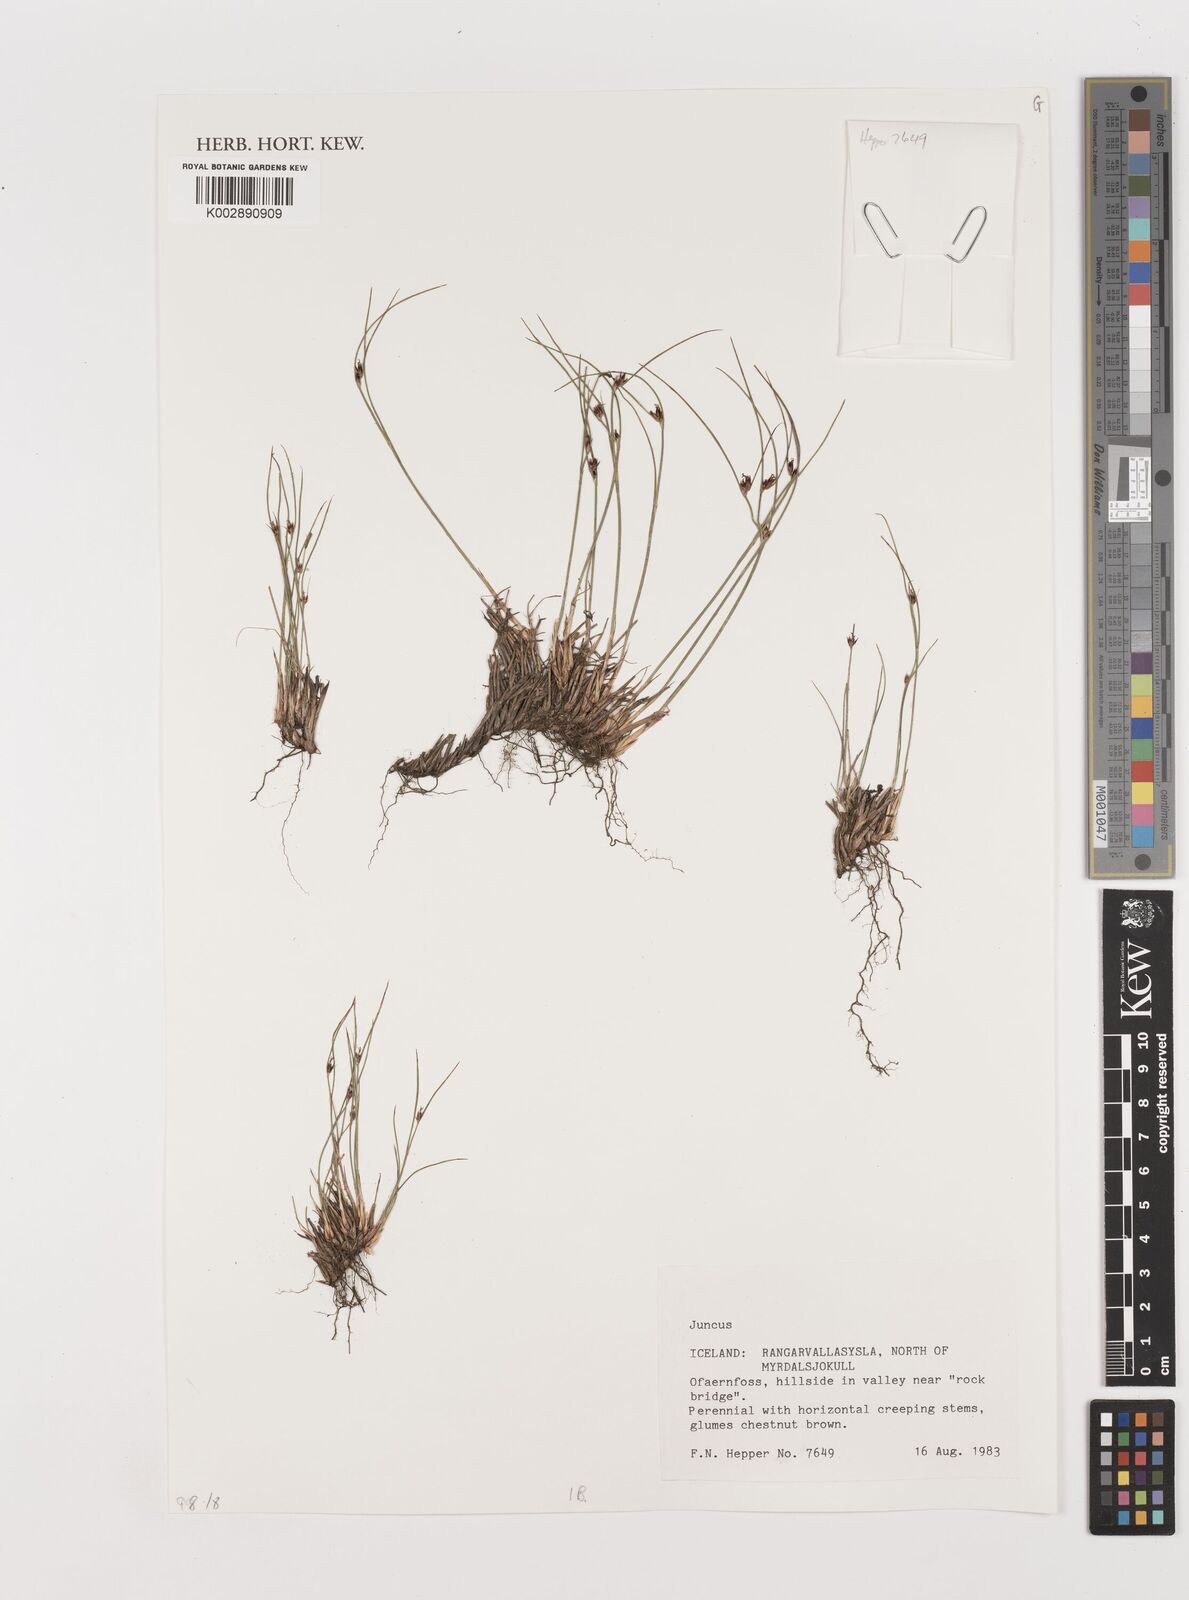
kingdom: Plantae
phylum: Tracheophyta
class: Liliopsida
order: Poales
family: Juncaceae
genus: Juncus
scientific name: Juncus
